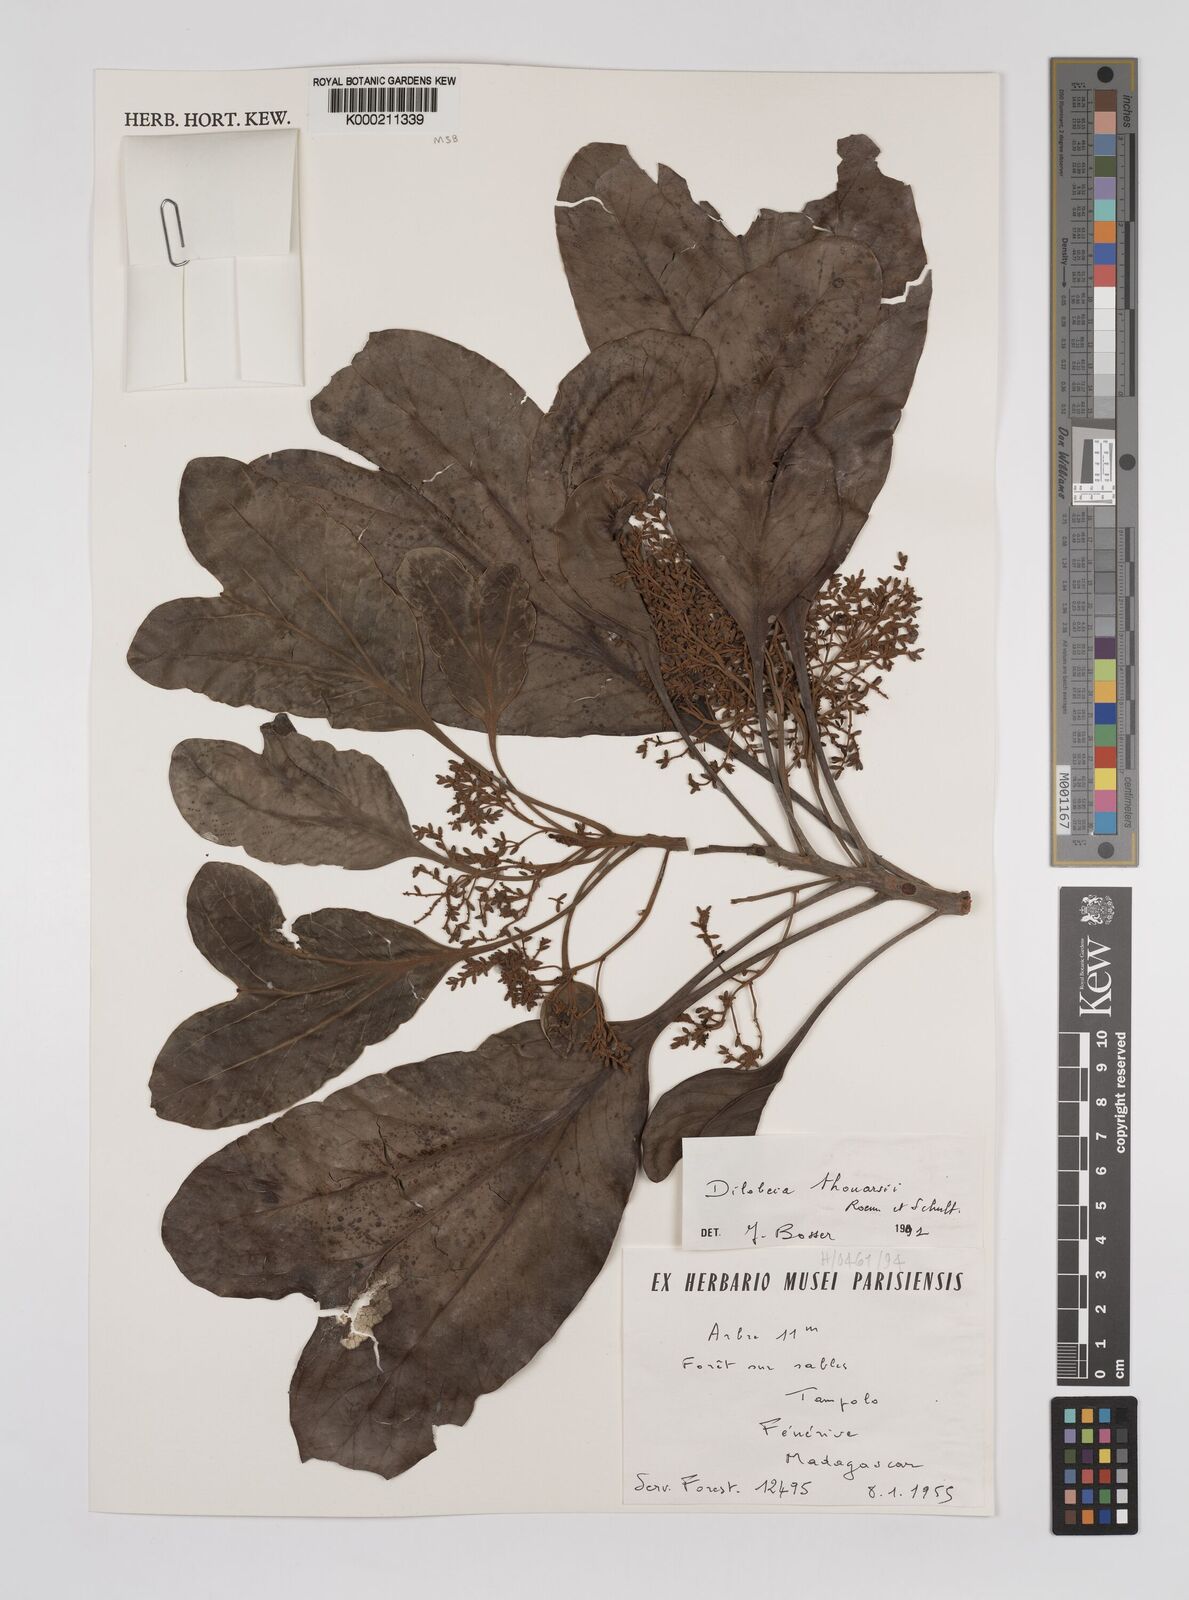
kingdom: Plantae
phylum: Tracheophyta
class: Magnoliopsida
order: Proteales
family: Proteaceae
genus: Dilobeia
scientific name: Dilobeia thouarsii
